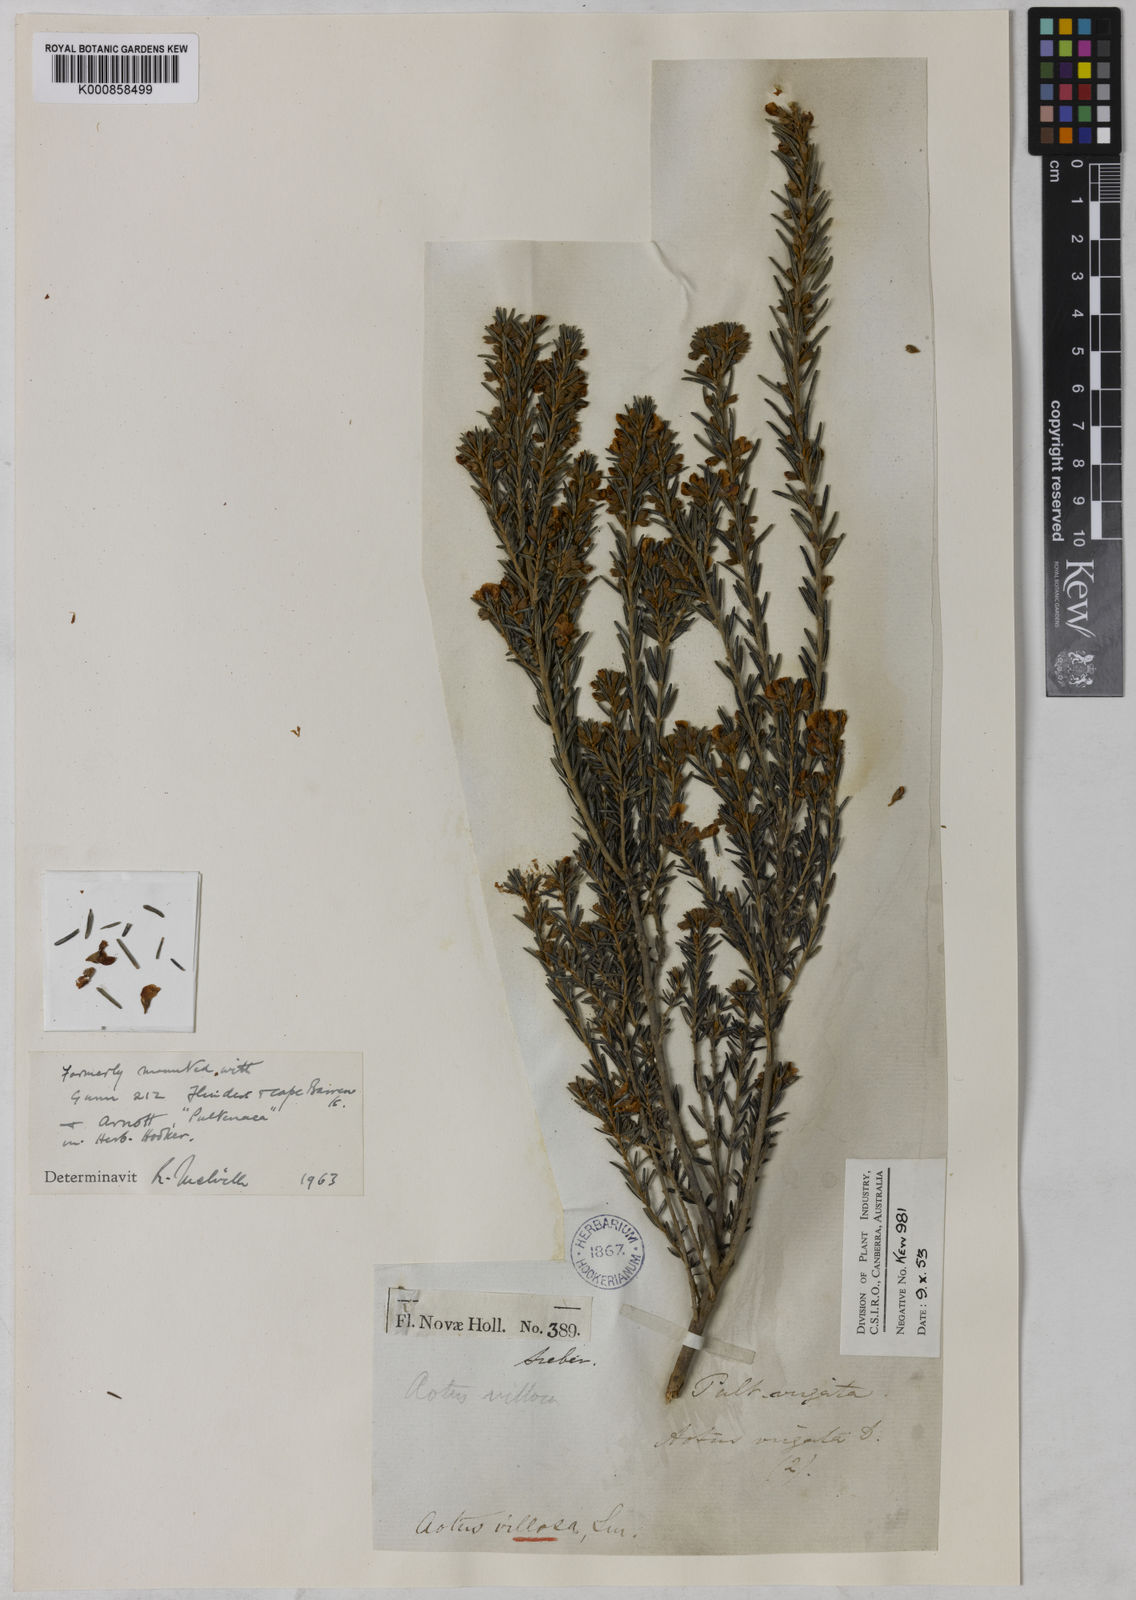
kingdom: Plantae
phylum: Tracheophyta
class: Magnoliopsida
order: Fabales
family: Fabaceae
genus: Aotus
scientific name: Aotus ericoides
